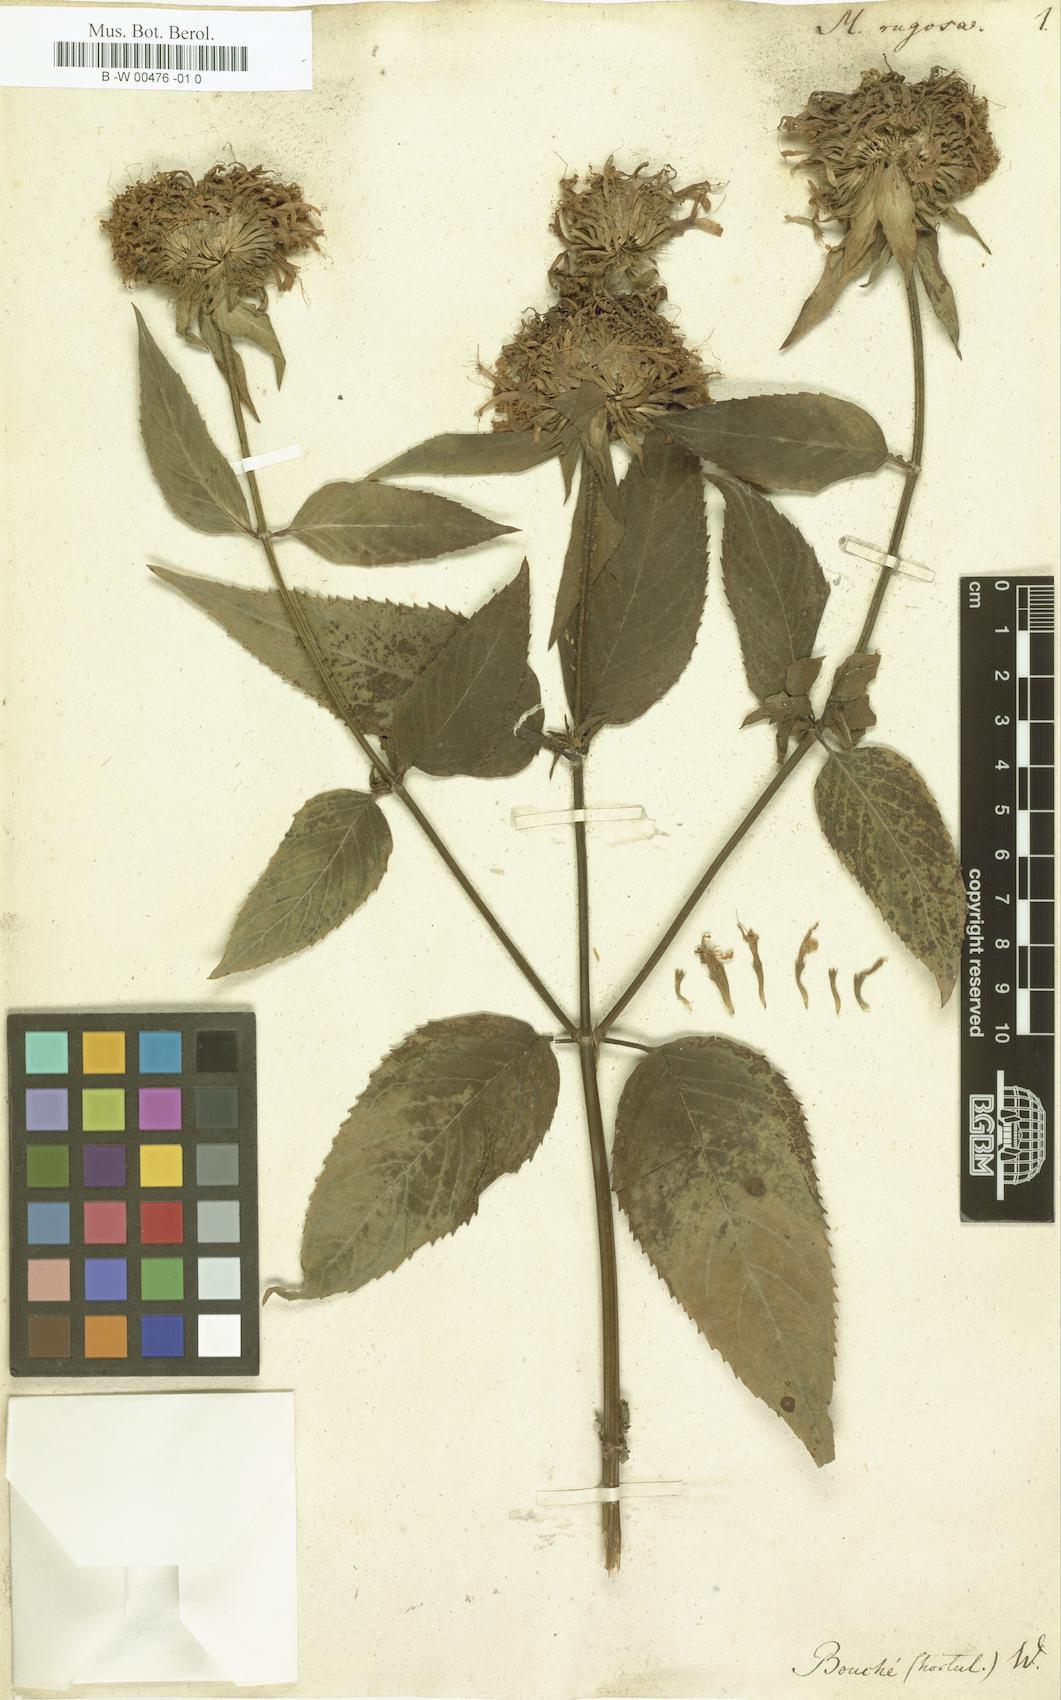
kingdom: Plantae
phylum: Tracheophyta
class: Magnoliopsida
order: Lamiales
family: Lamiaceae
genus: Monarda
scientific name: Monarda clinopodia
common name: Basil beebalm
